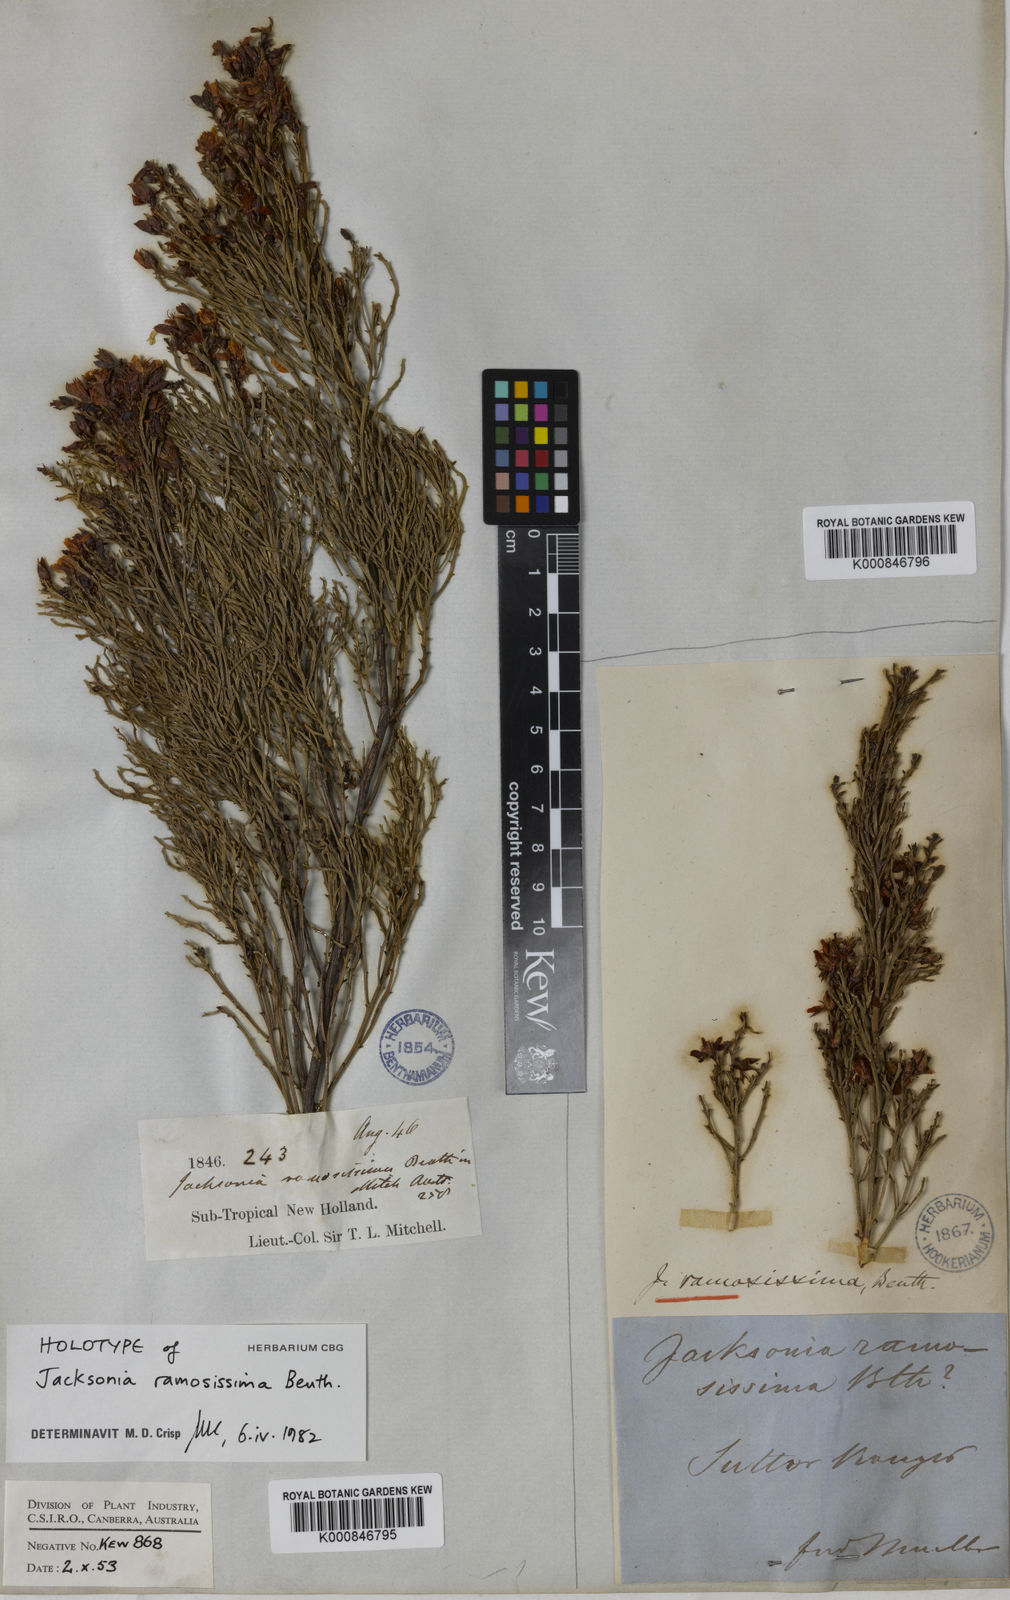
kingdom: Plantae
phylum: Tracheophyta
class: Magnoliopsida
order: Fabales
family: Fabaceae
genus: Jacksonia
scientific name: Jacksonia ramosissima
